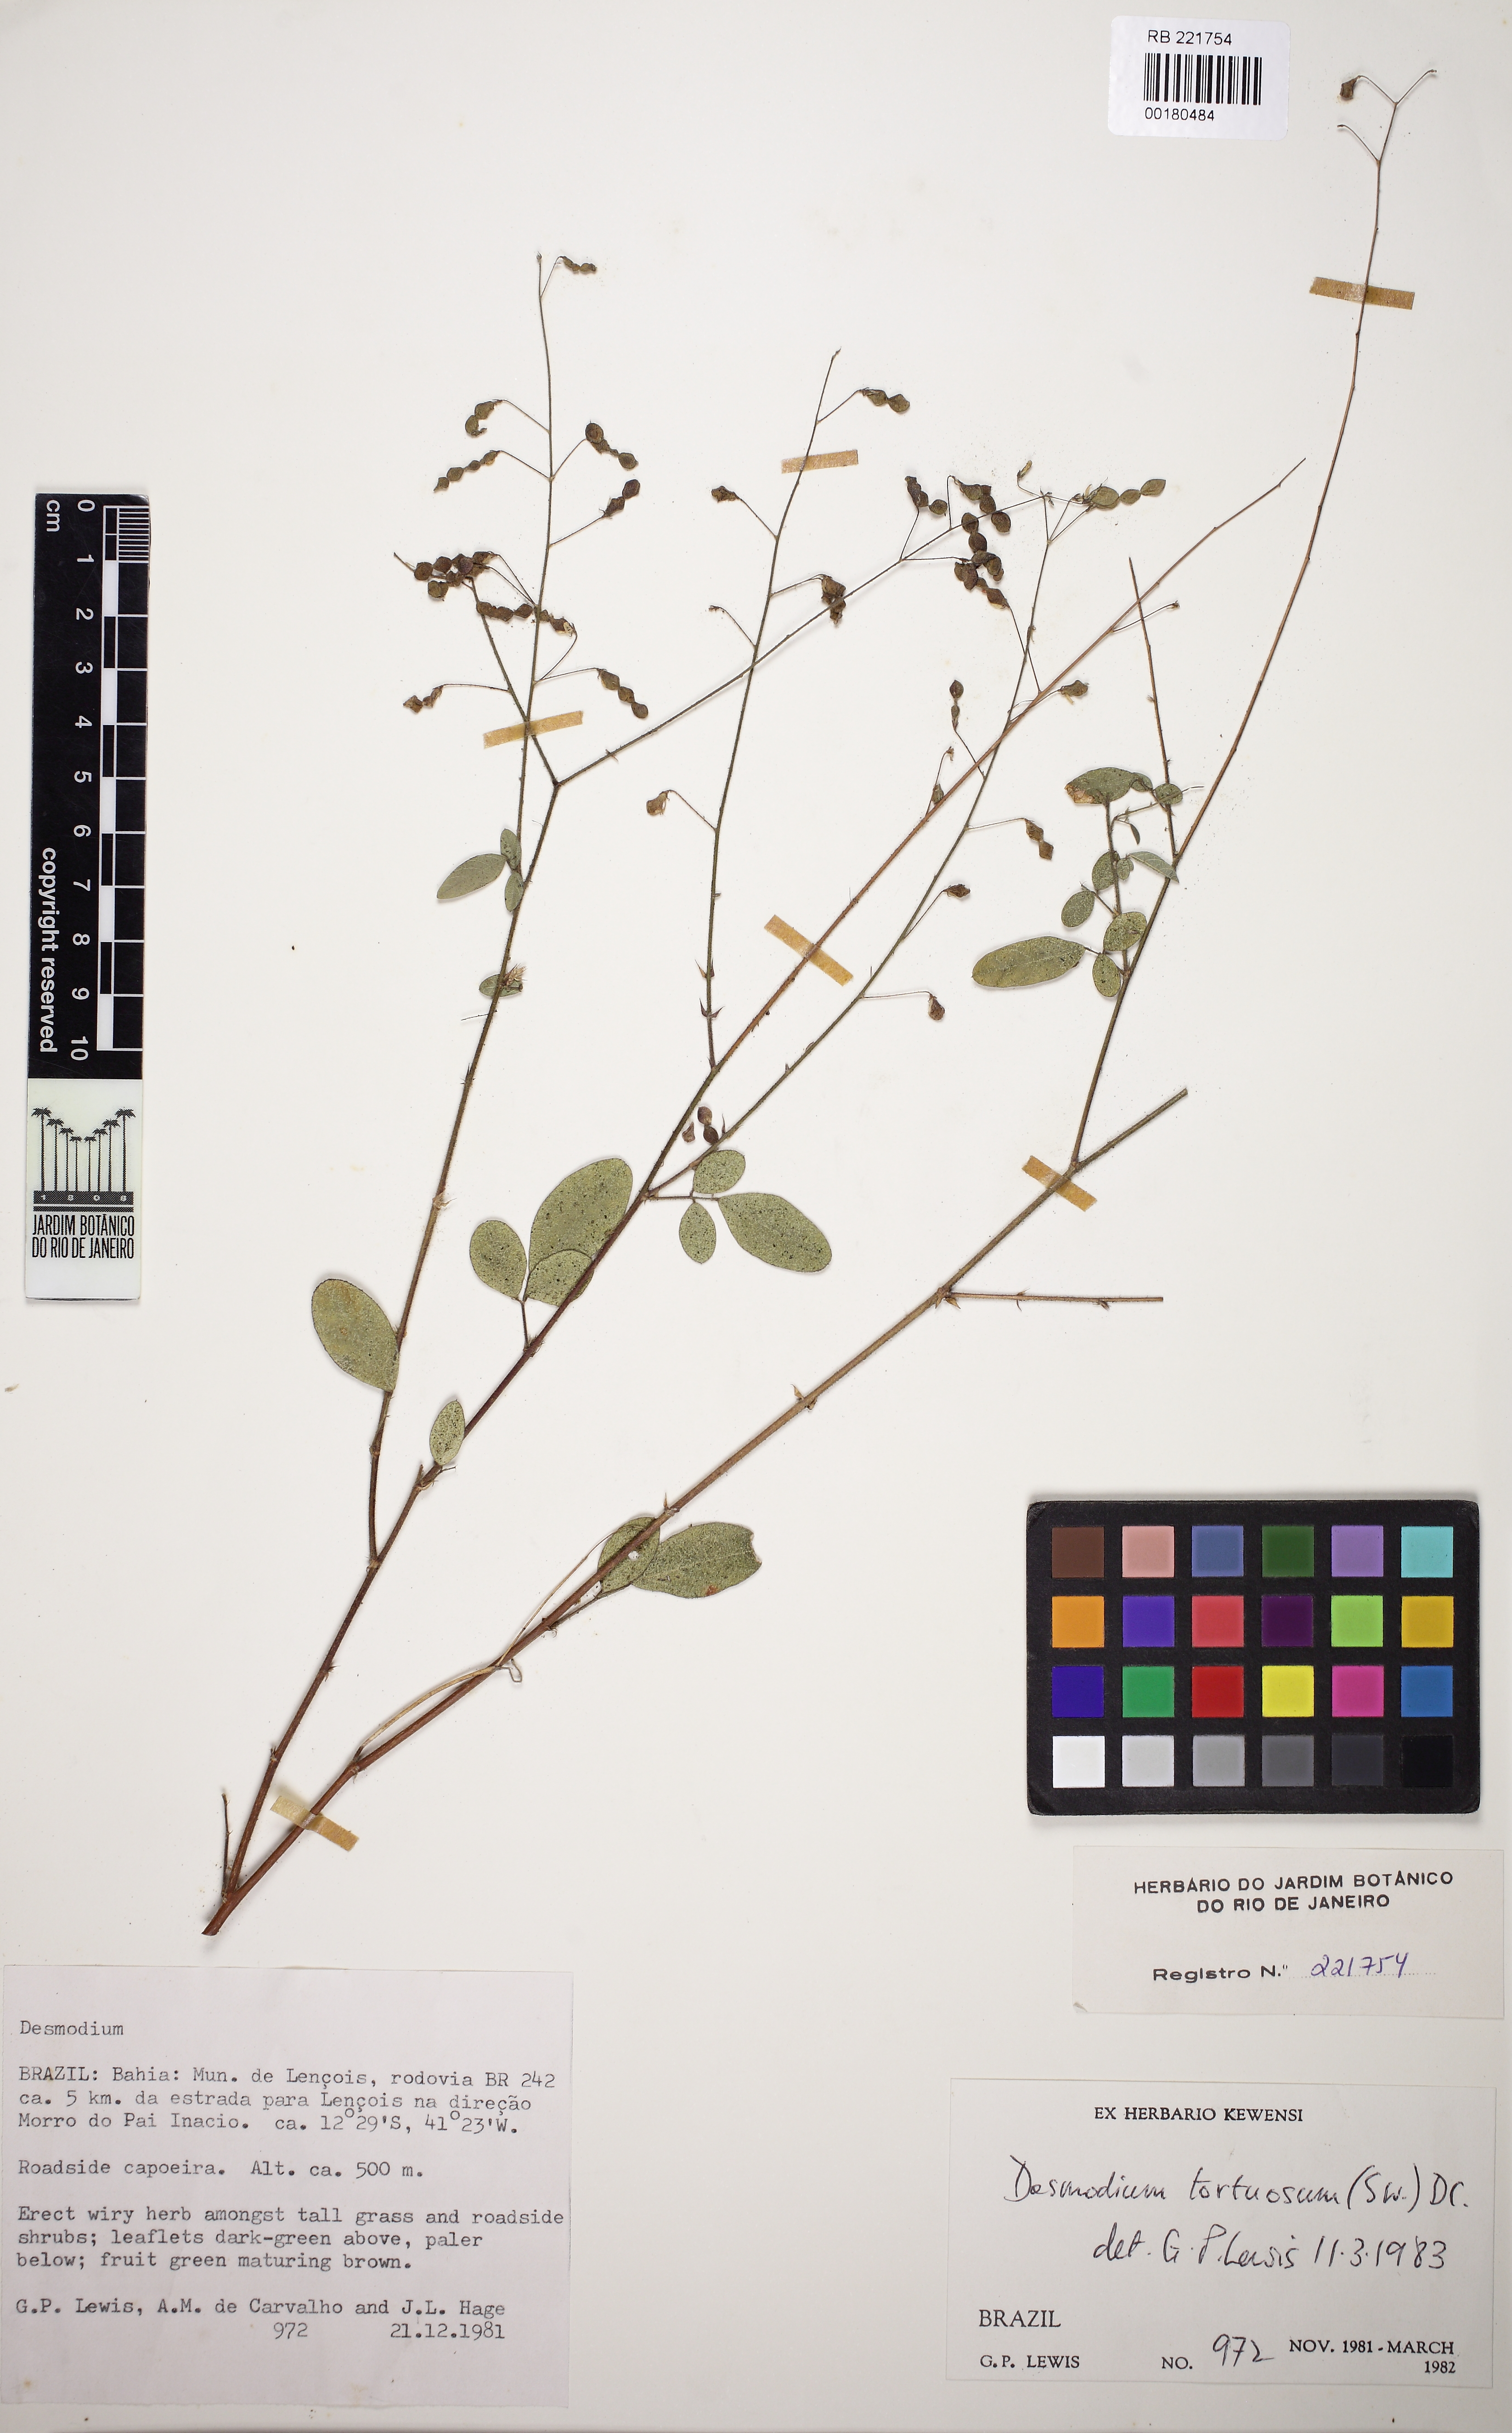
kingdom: Plantae
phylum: Tracheophyta
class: Magnoliopsida
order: Fabales
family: Fabaceae
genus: Desmodium
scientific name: Desmodium tortuosum
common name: Dixie ticktrefoil
